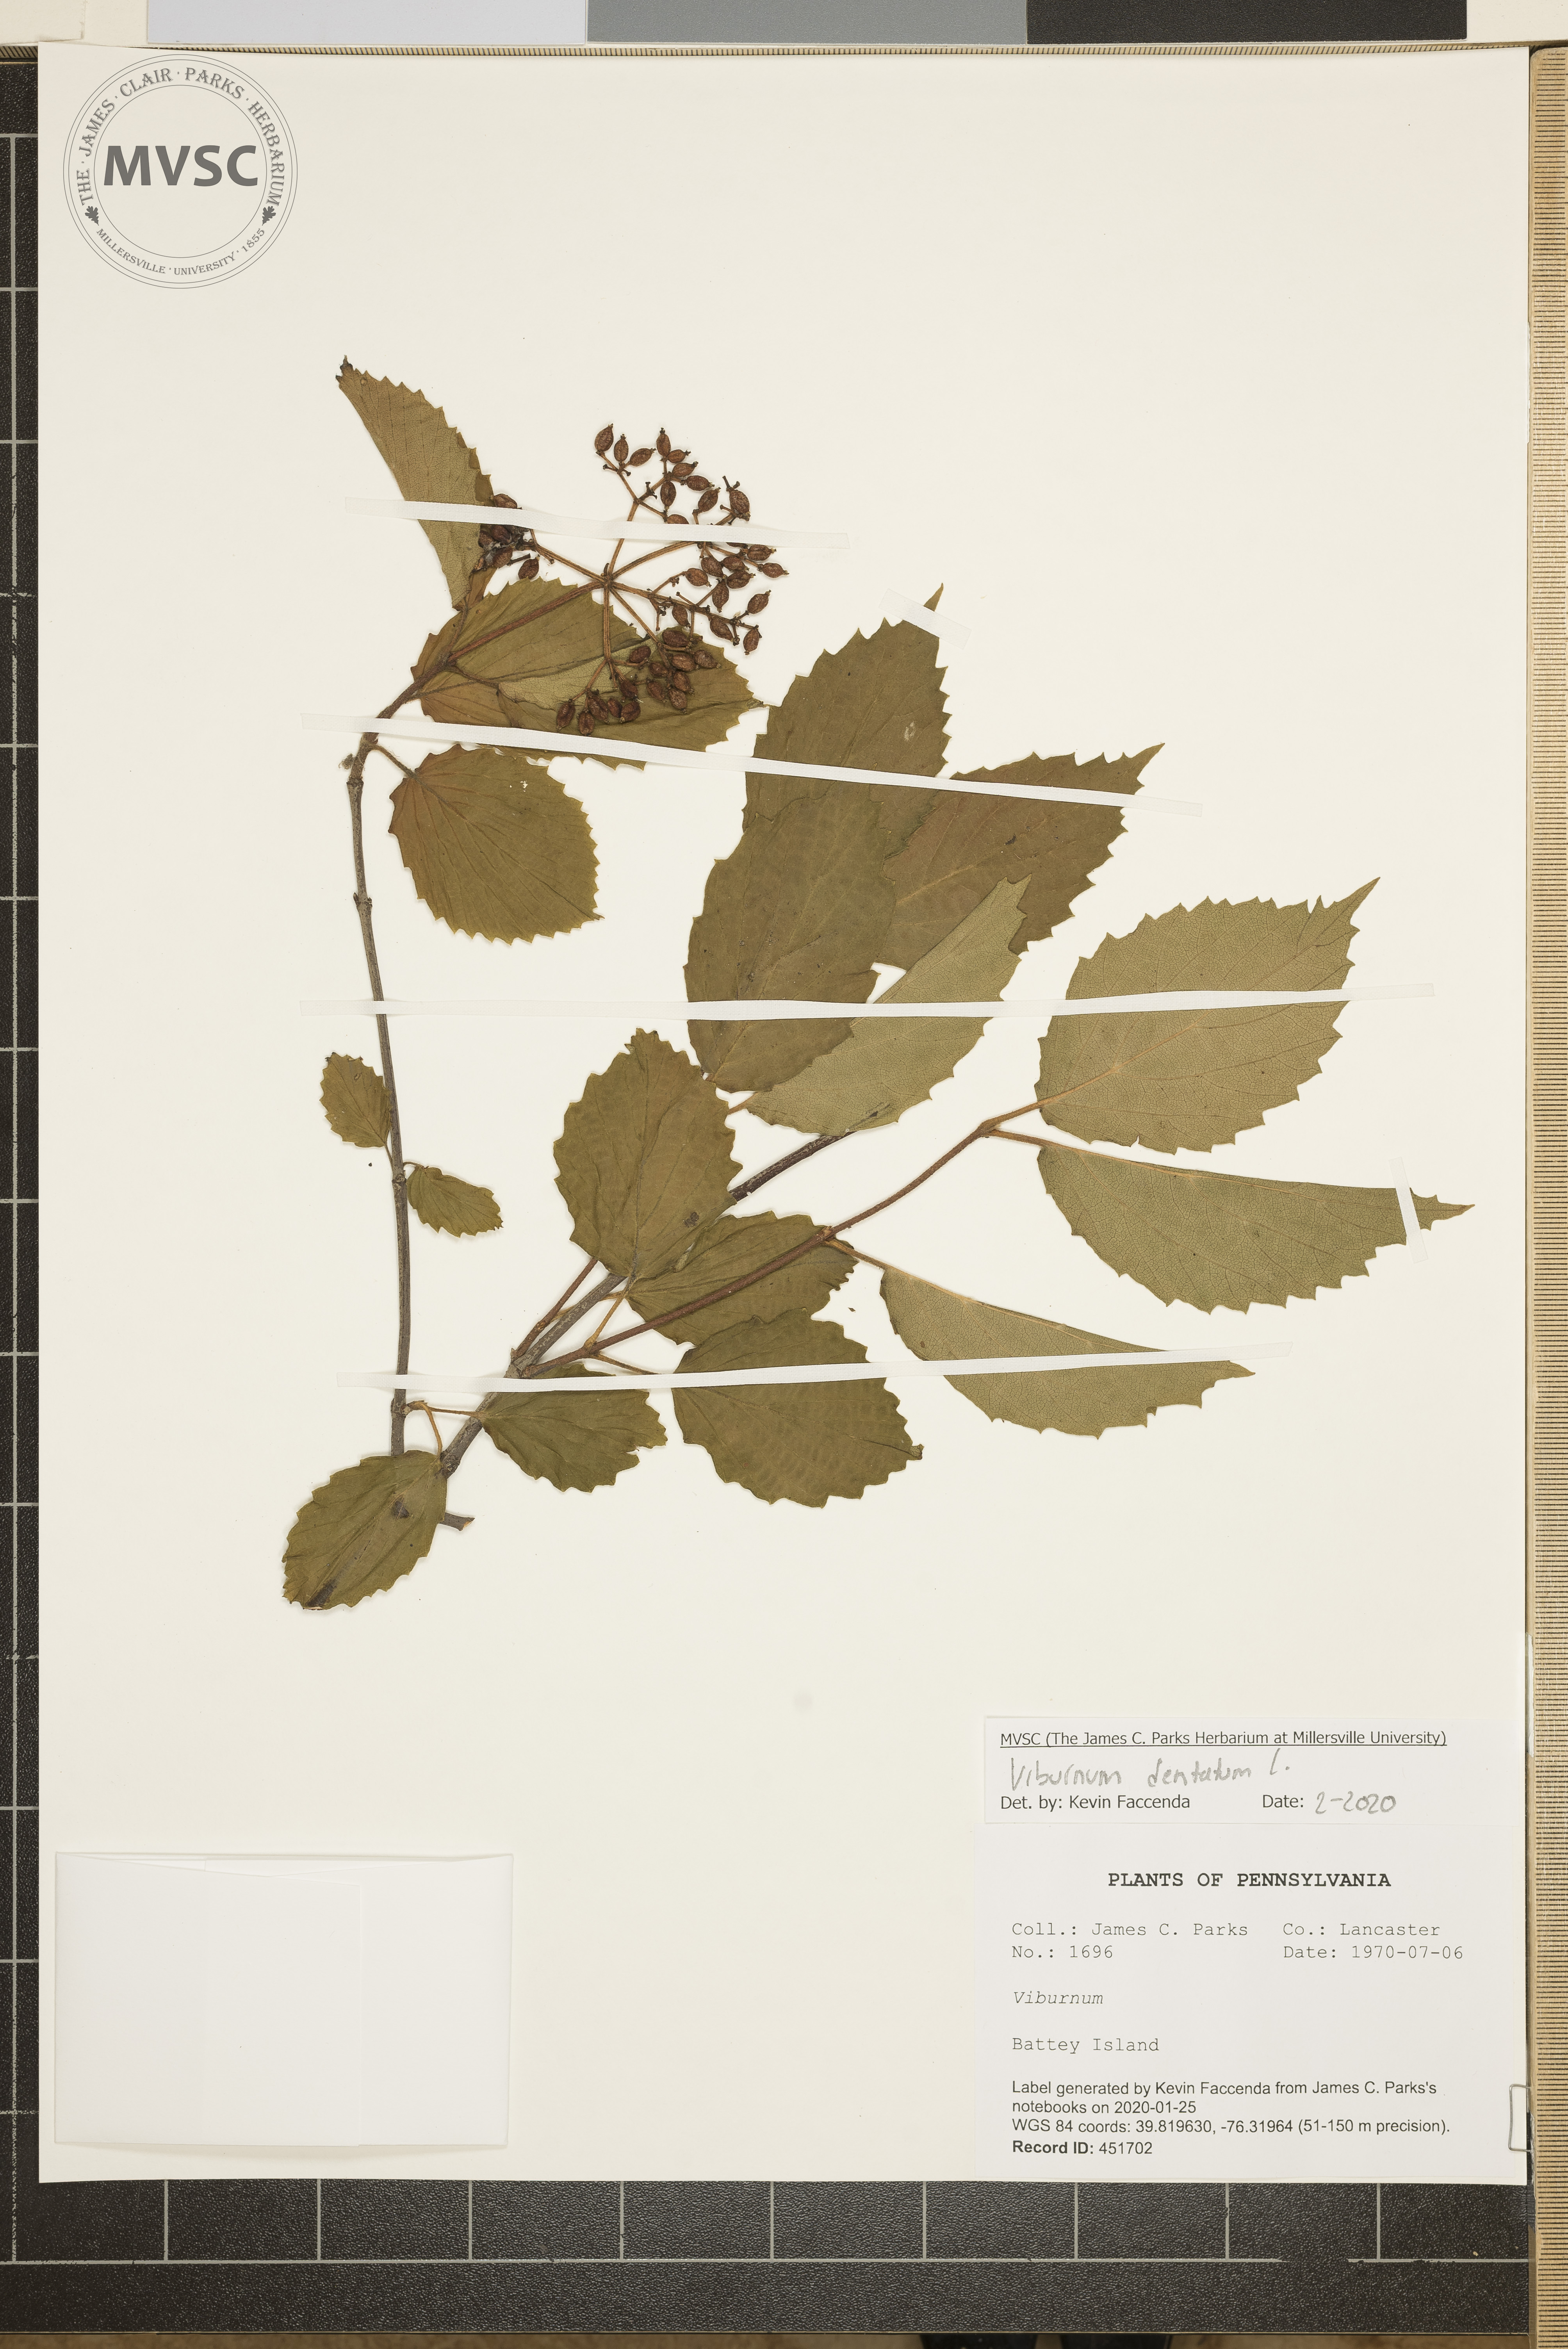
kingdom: Plantae
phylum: Tracheophyta
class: Magnoliopsida
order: Dipsacales
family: Viburnaceae
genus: Viburnum
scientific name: Viburnum dentatum
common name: Arrow-wood
